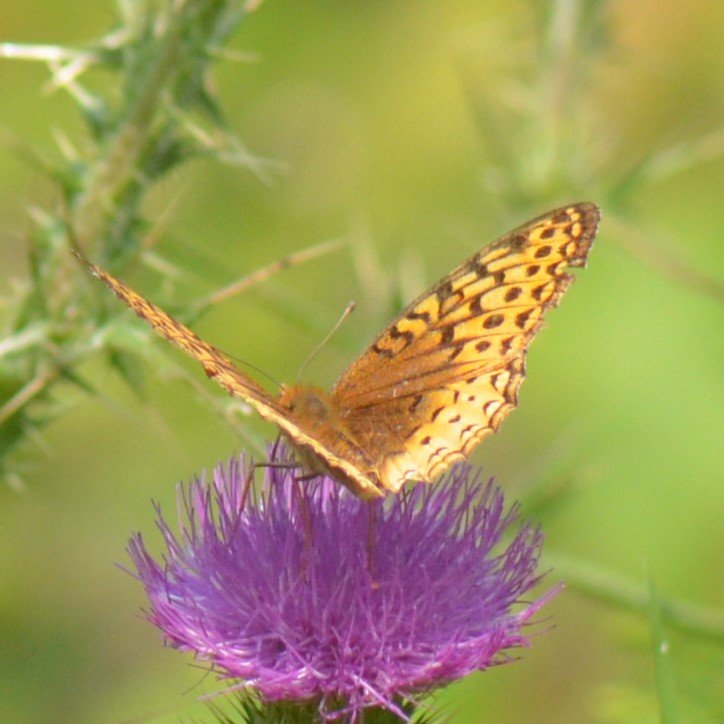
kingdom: Animalia
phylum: Arthropoda
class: Insecta
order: Lepidoptera
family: Nymphalidae
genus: Speyeria
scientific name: Speyeria cybele
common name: Great Spangled Fritillary
